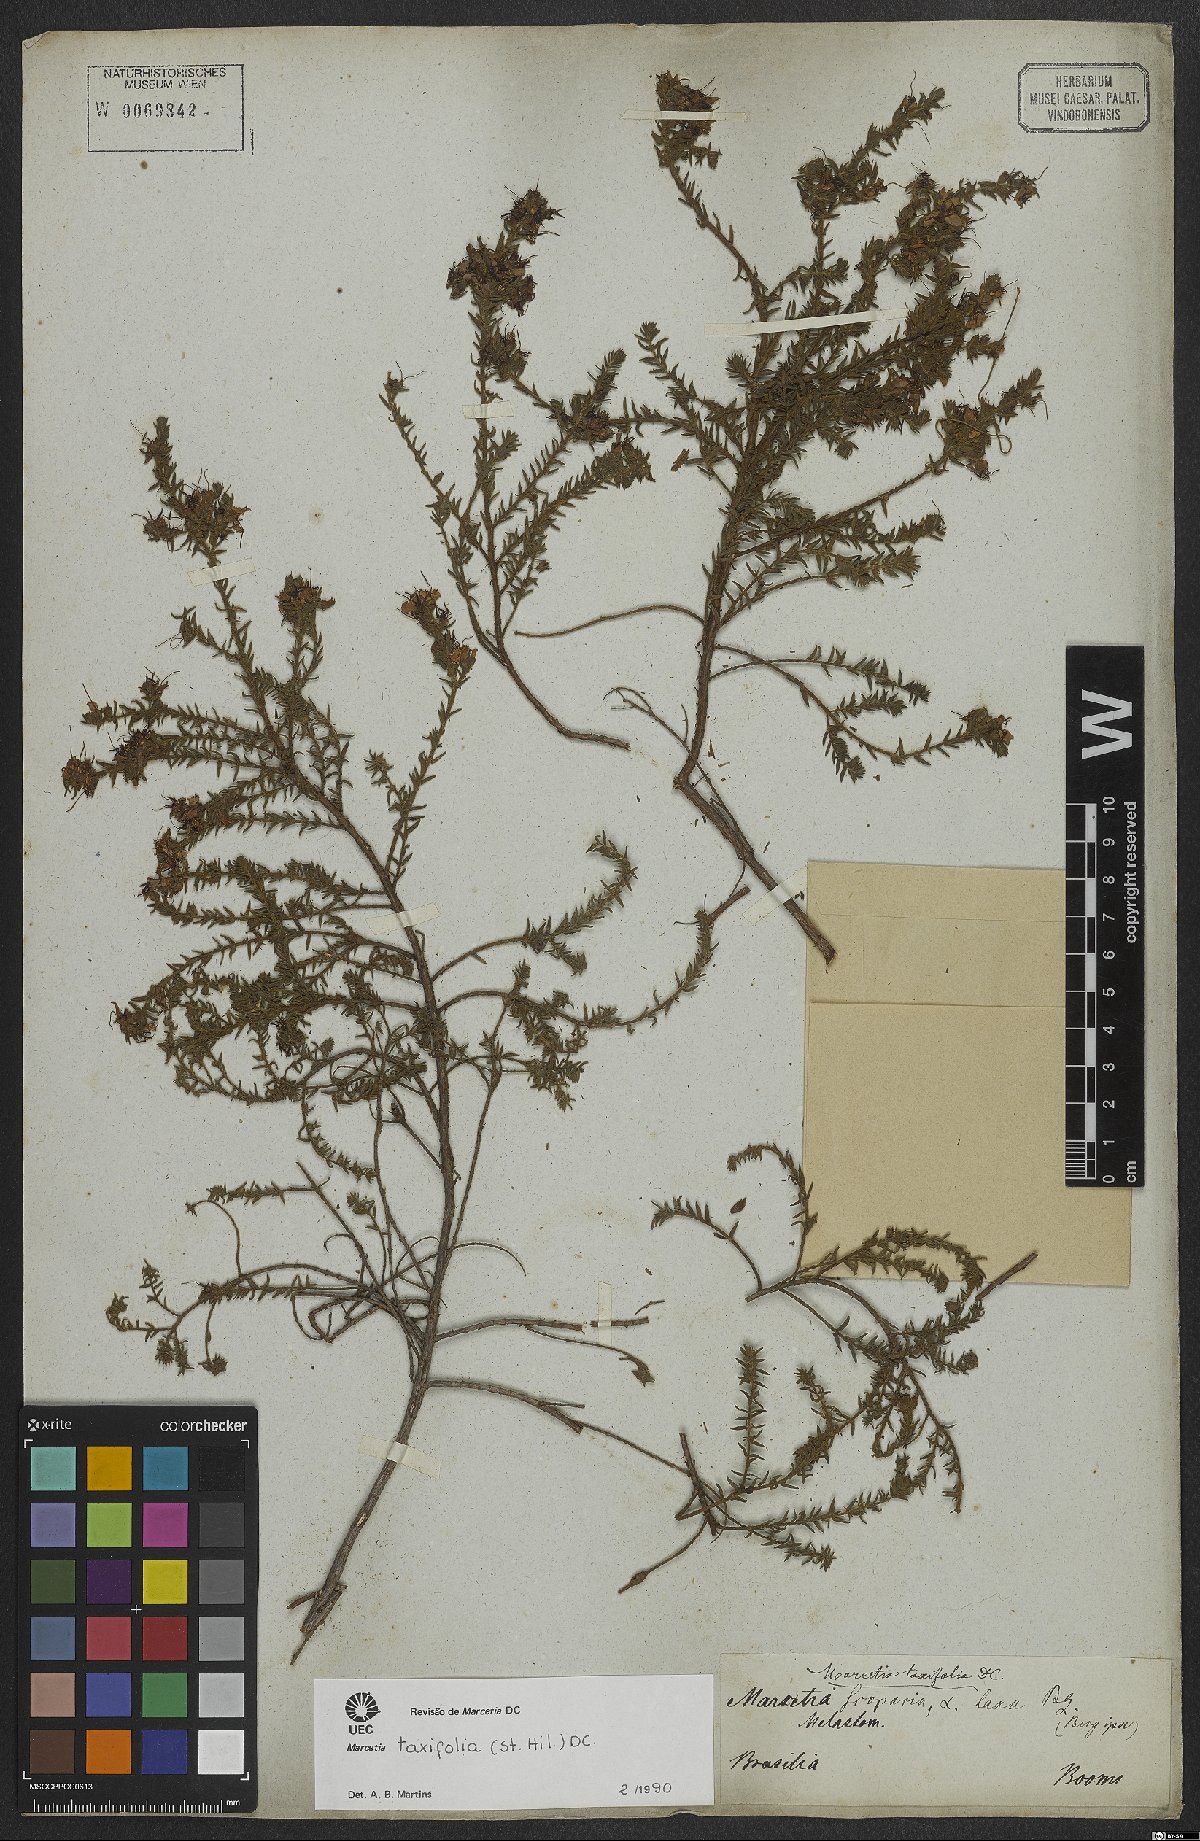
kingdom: Plantae
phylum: Tracheophyta
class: Magnoliopsida
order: Myrtales
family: Melastomataceae
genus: Marcetia
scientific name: Marcetia taxifolia
